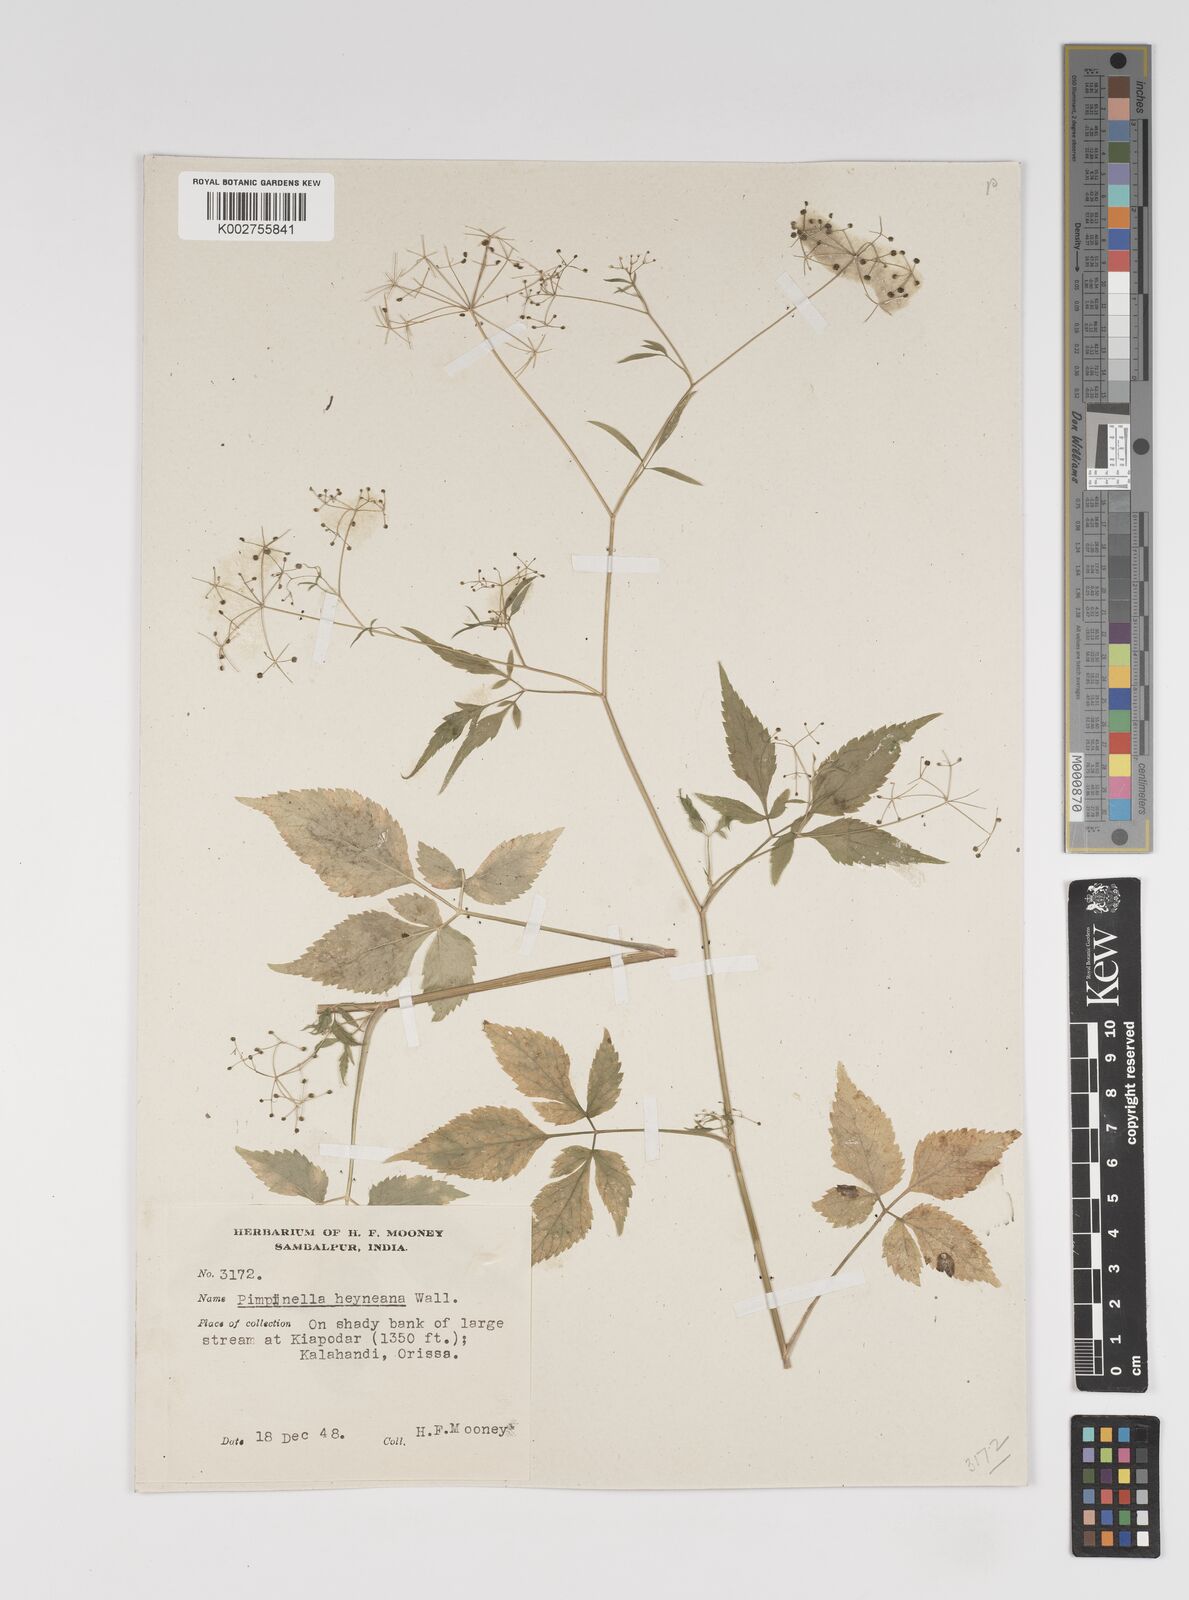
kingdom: Plantae
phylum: Tracheophyta
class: Magnoliopsida
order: Apiales
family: Apiaceae
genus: Pimpinella
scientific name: Pimpinella heyneana
